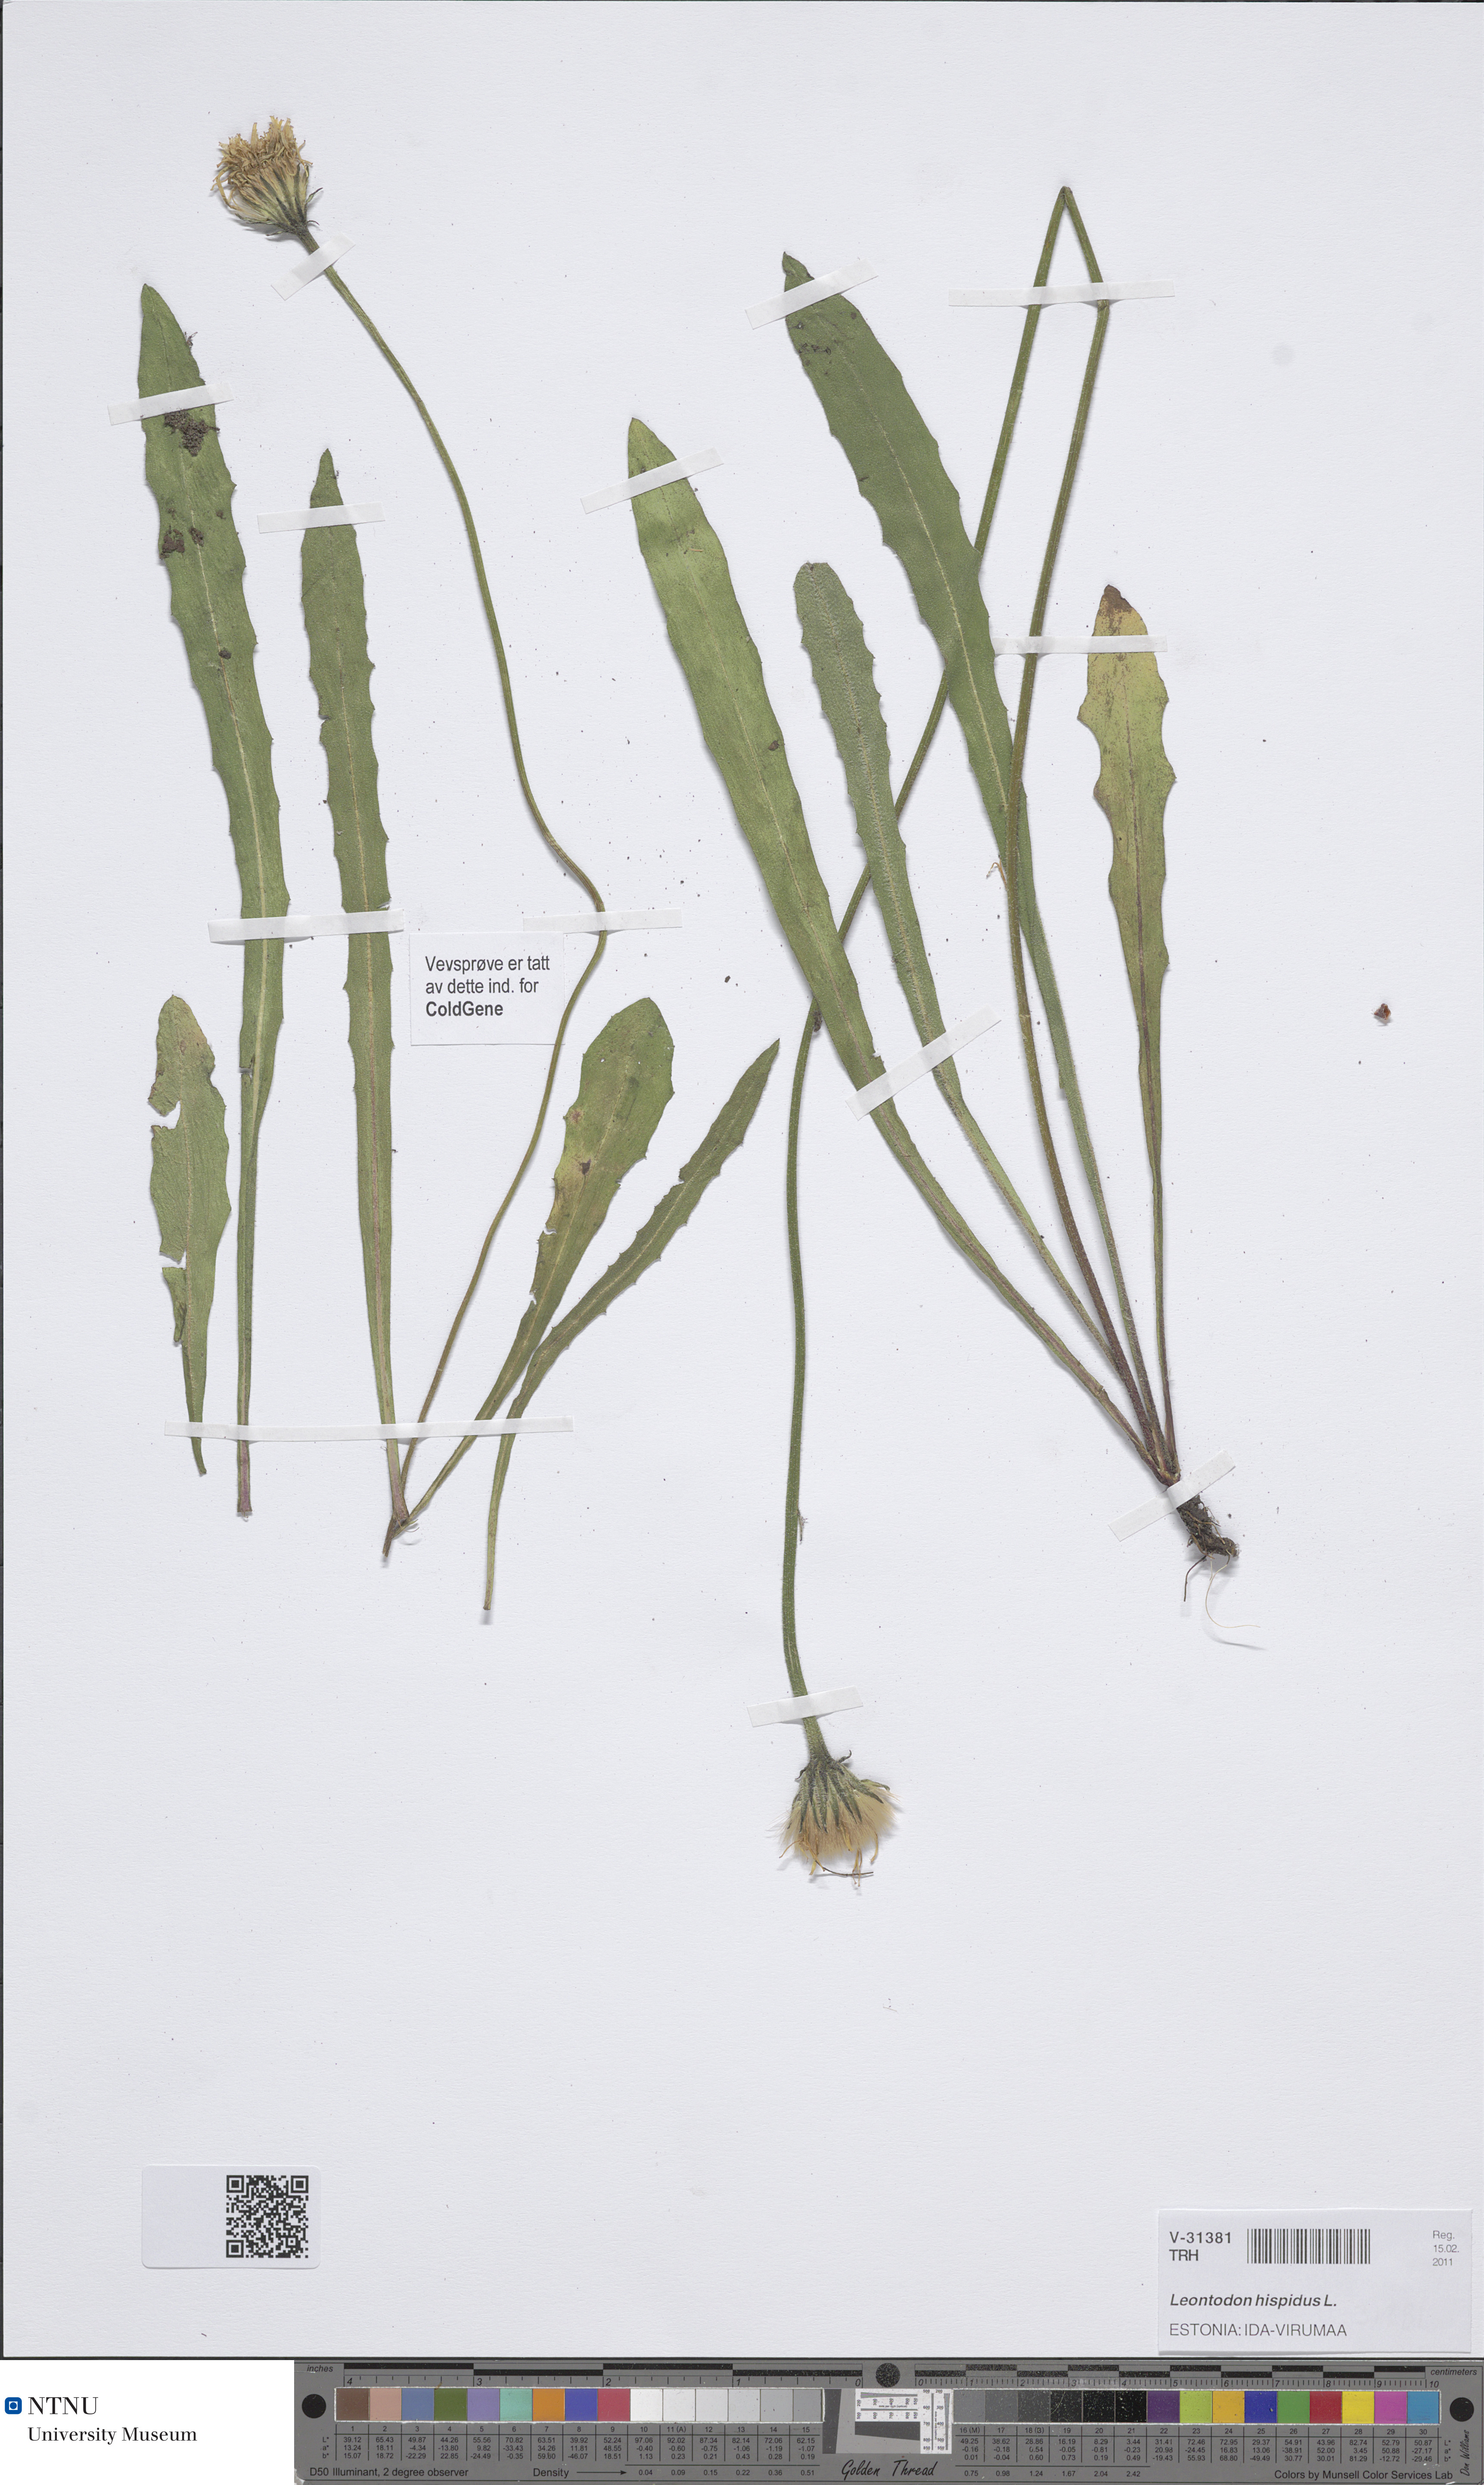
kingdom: Plantae
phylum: Tracheophyta
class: Magnoliopsida
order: Asterales
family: Asteraceae
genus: Leontodon
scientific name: Leontodon hispidus
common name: Rough hawkbit
